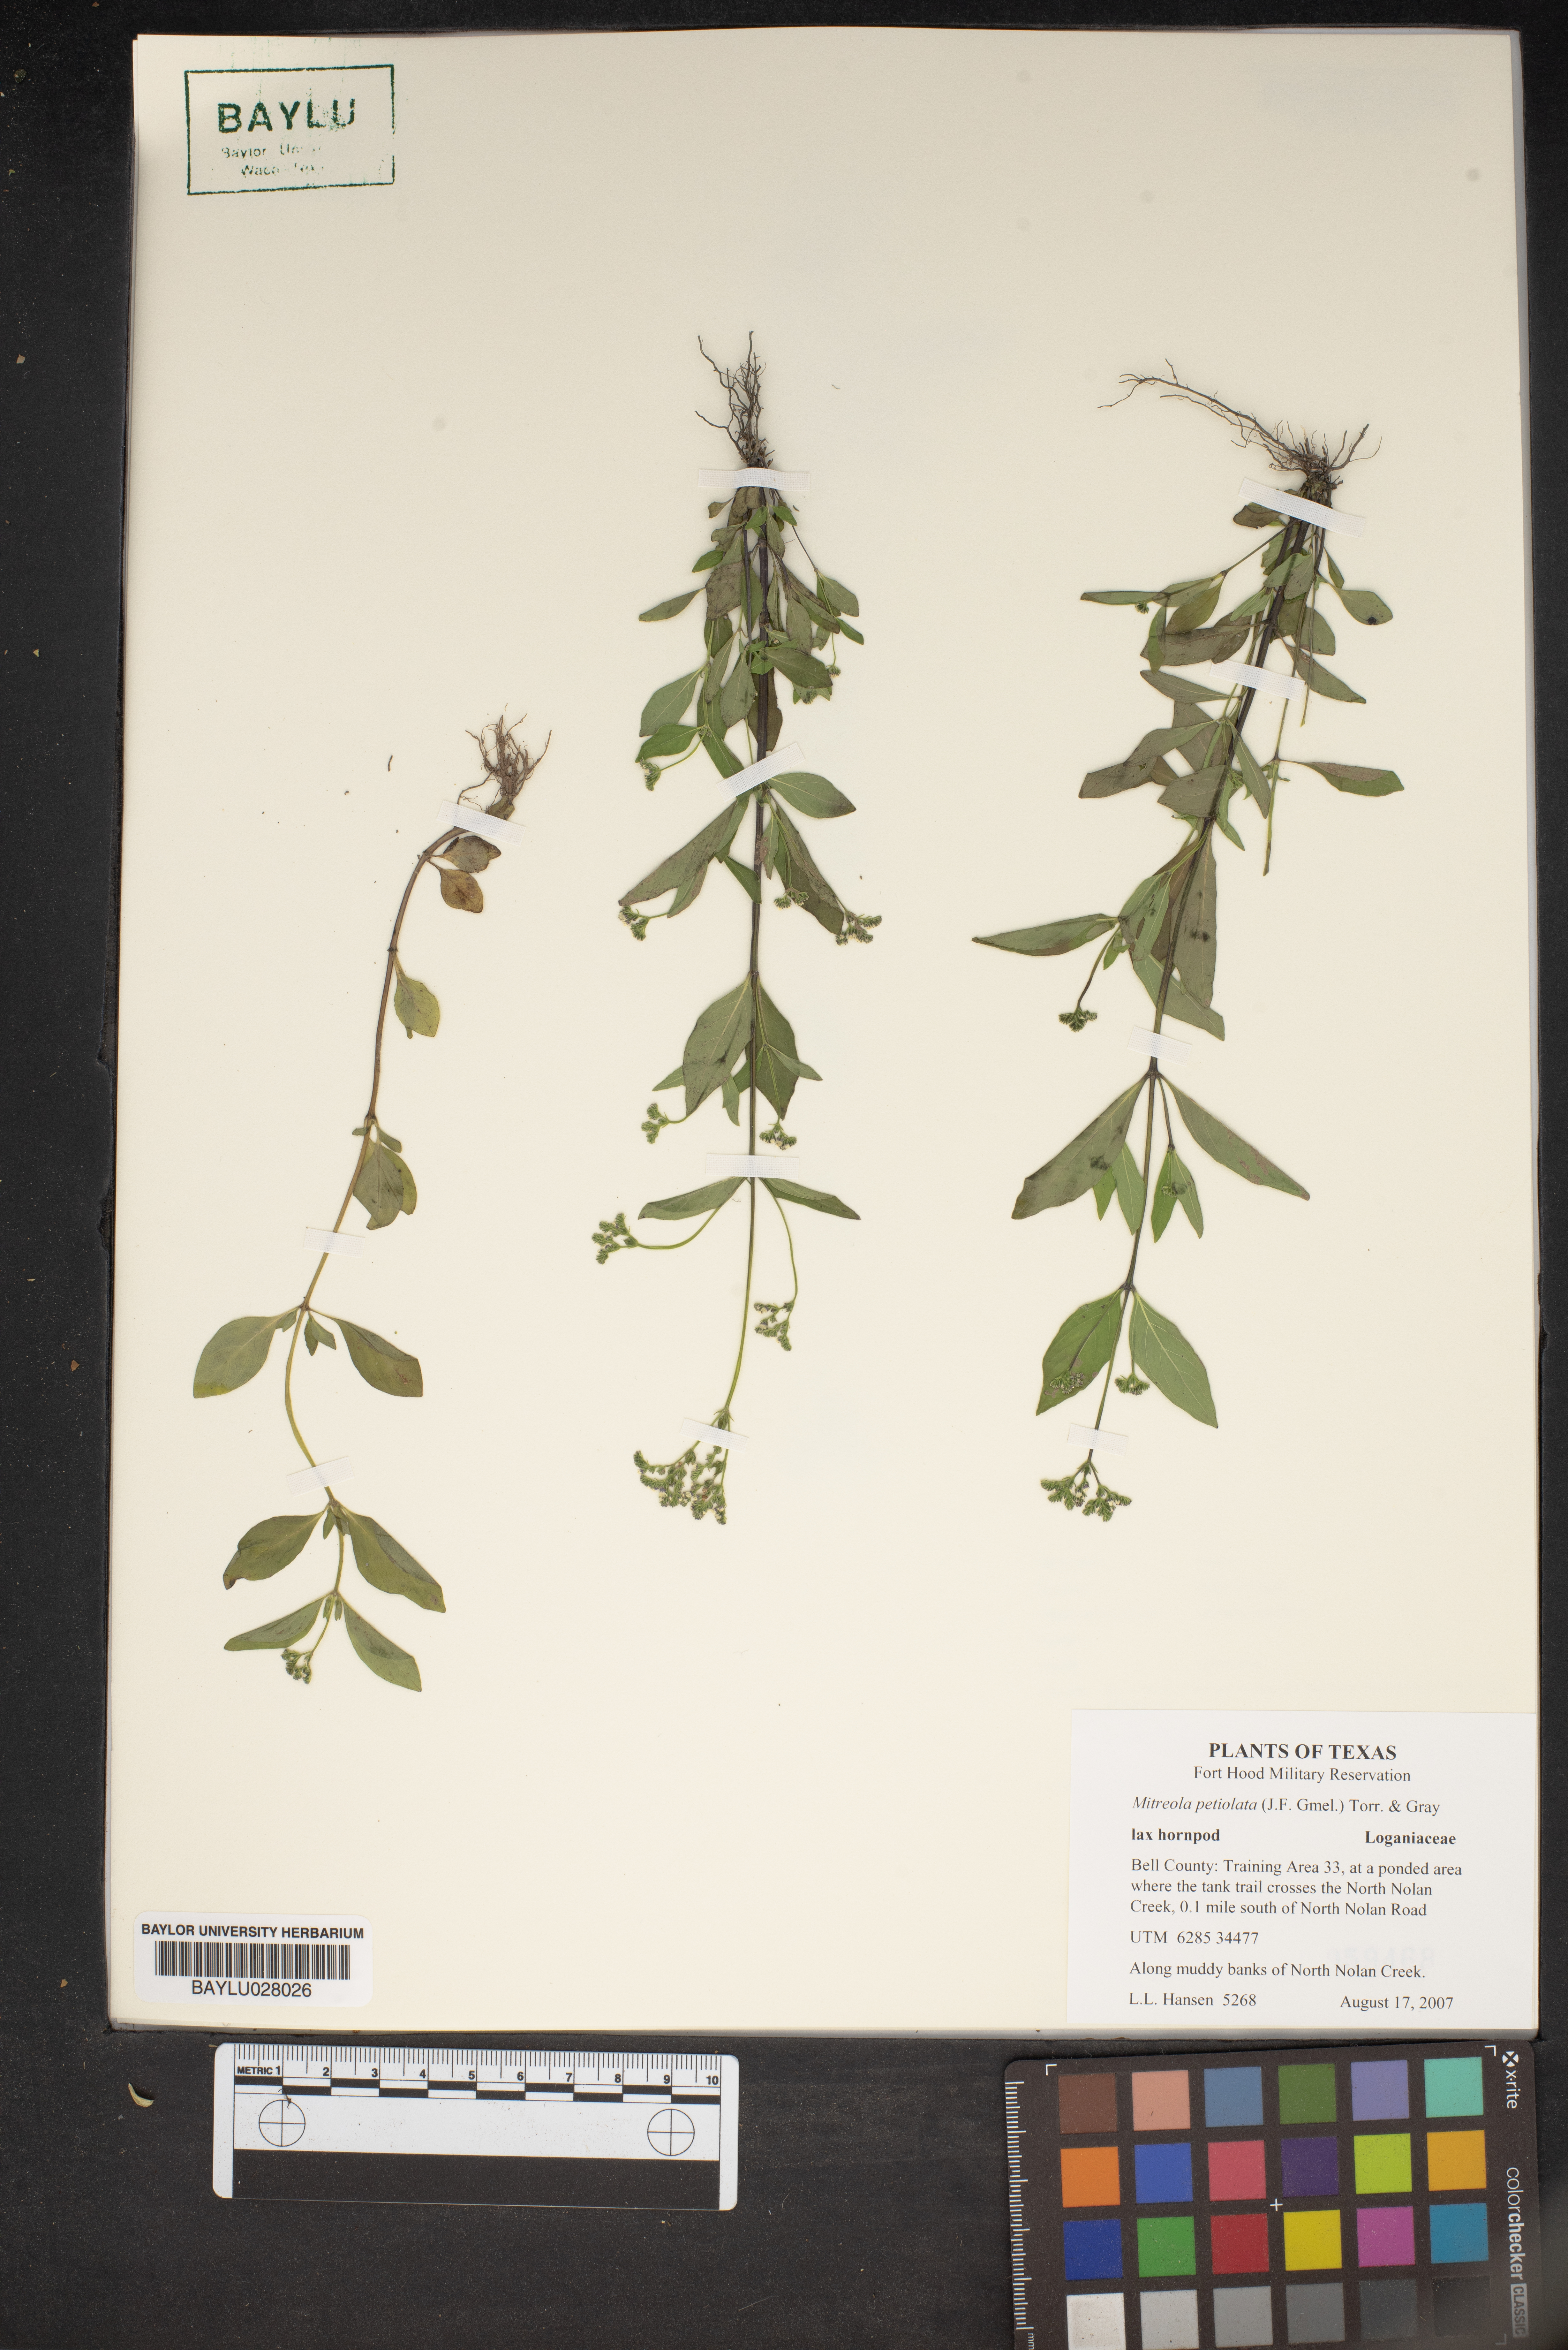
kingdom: Plantae
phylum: Tracheophyta
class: Magnoliopsida
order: Gentianales
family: Loganiaceae
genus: Mitreola
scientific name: Mitreola petiolata
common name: Lax hornpod
